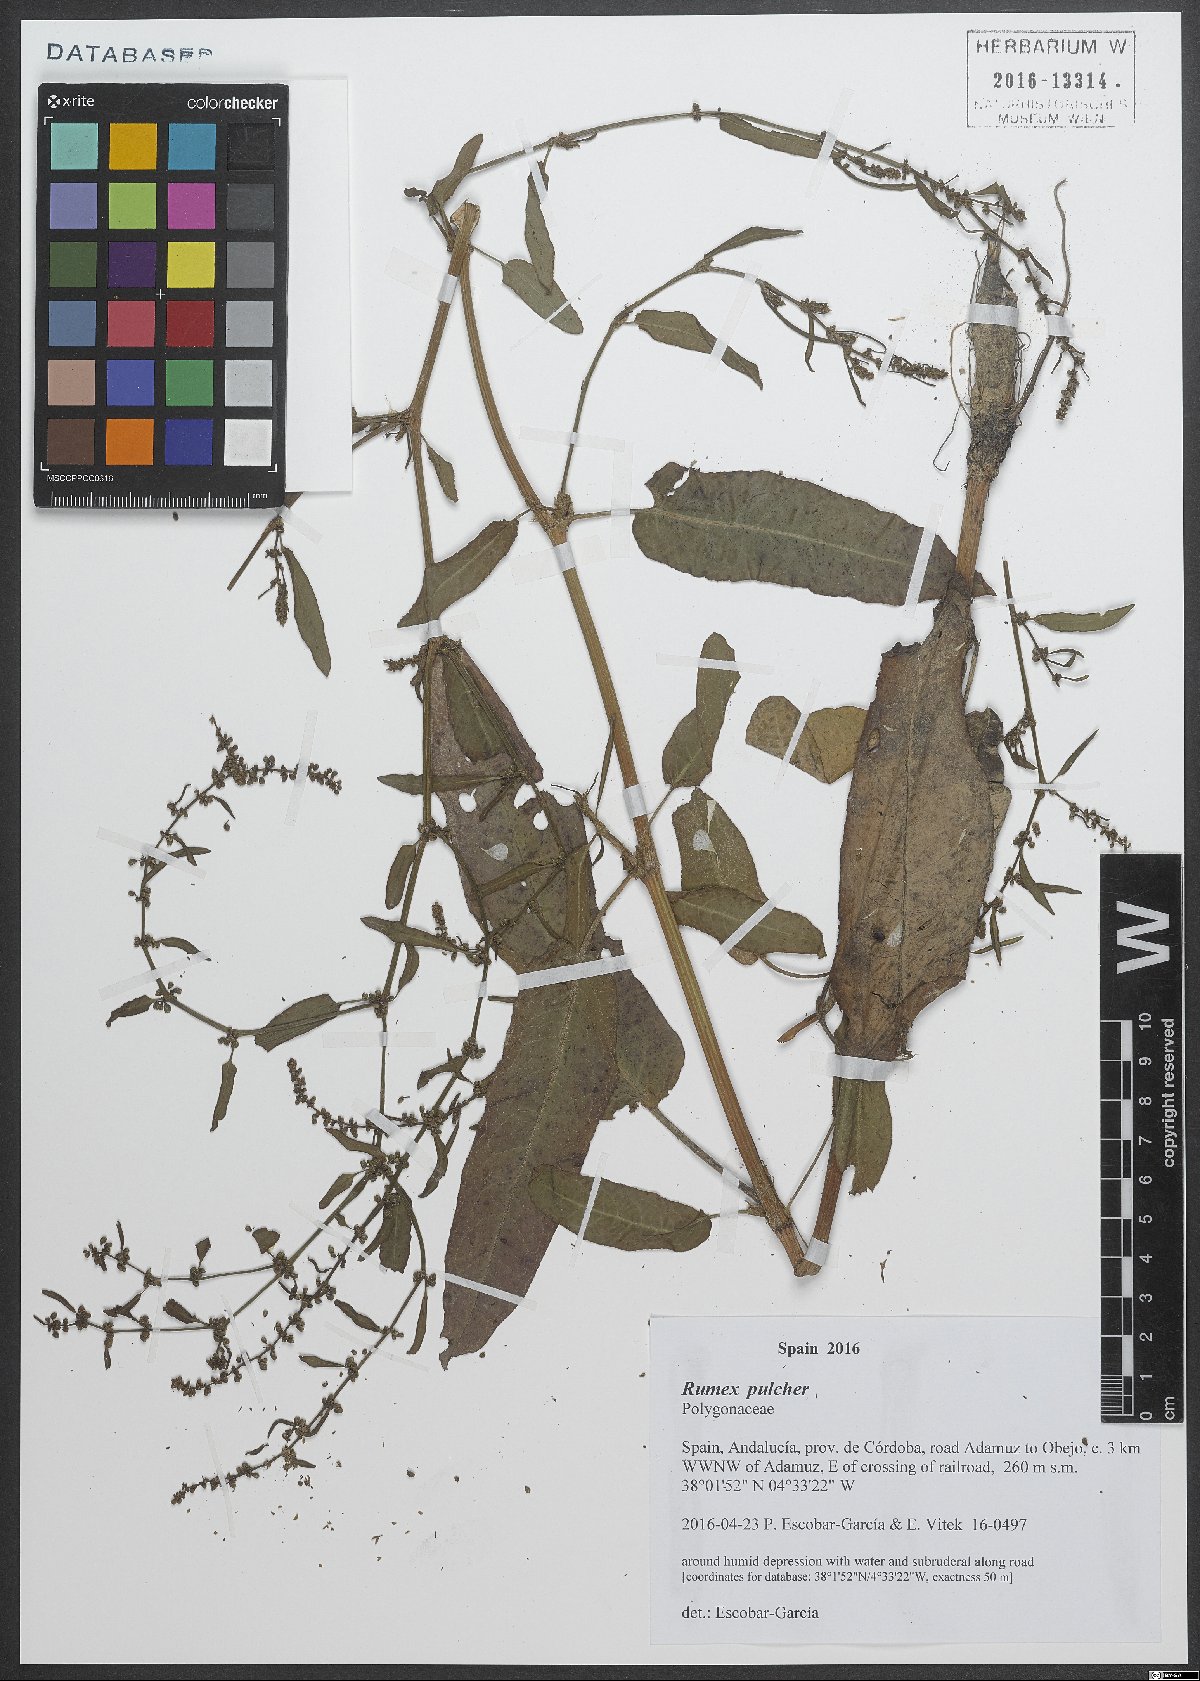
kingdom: Plantae
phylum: Tracheophyta
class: Magnoliopsida
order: Caryophyllales
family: Polygonaceae
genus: Rumex
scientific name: Rumex pulcher
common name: Fiddle dock
